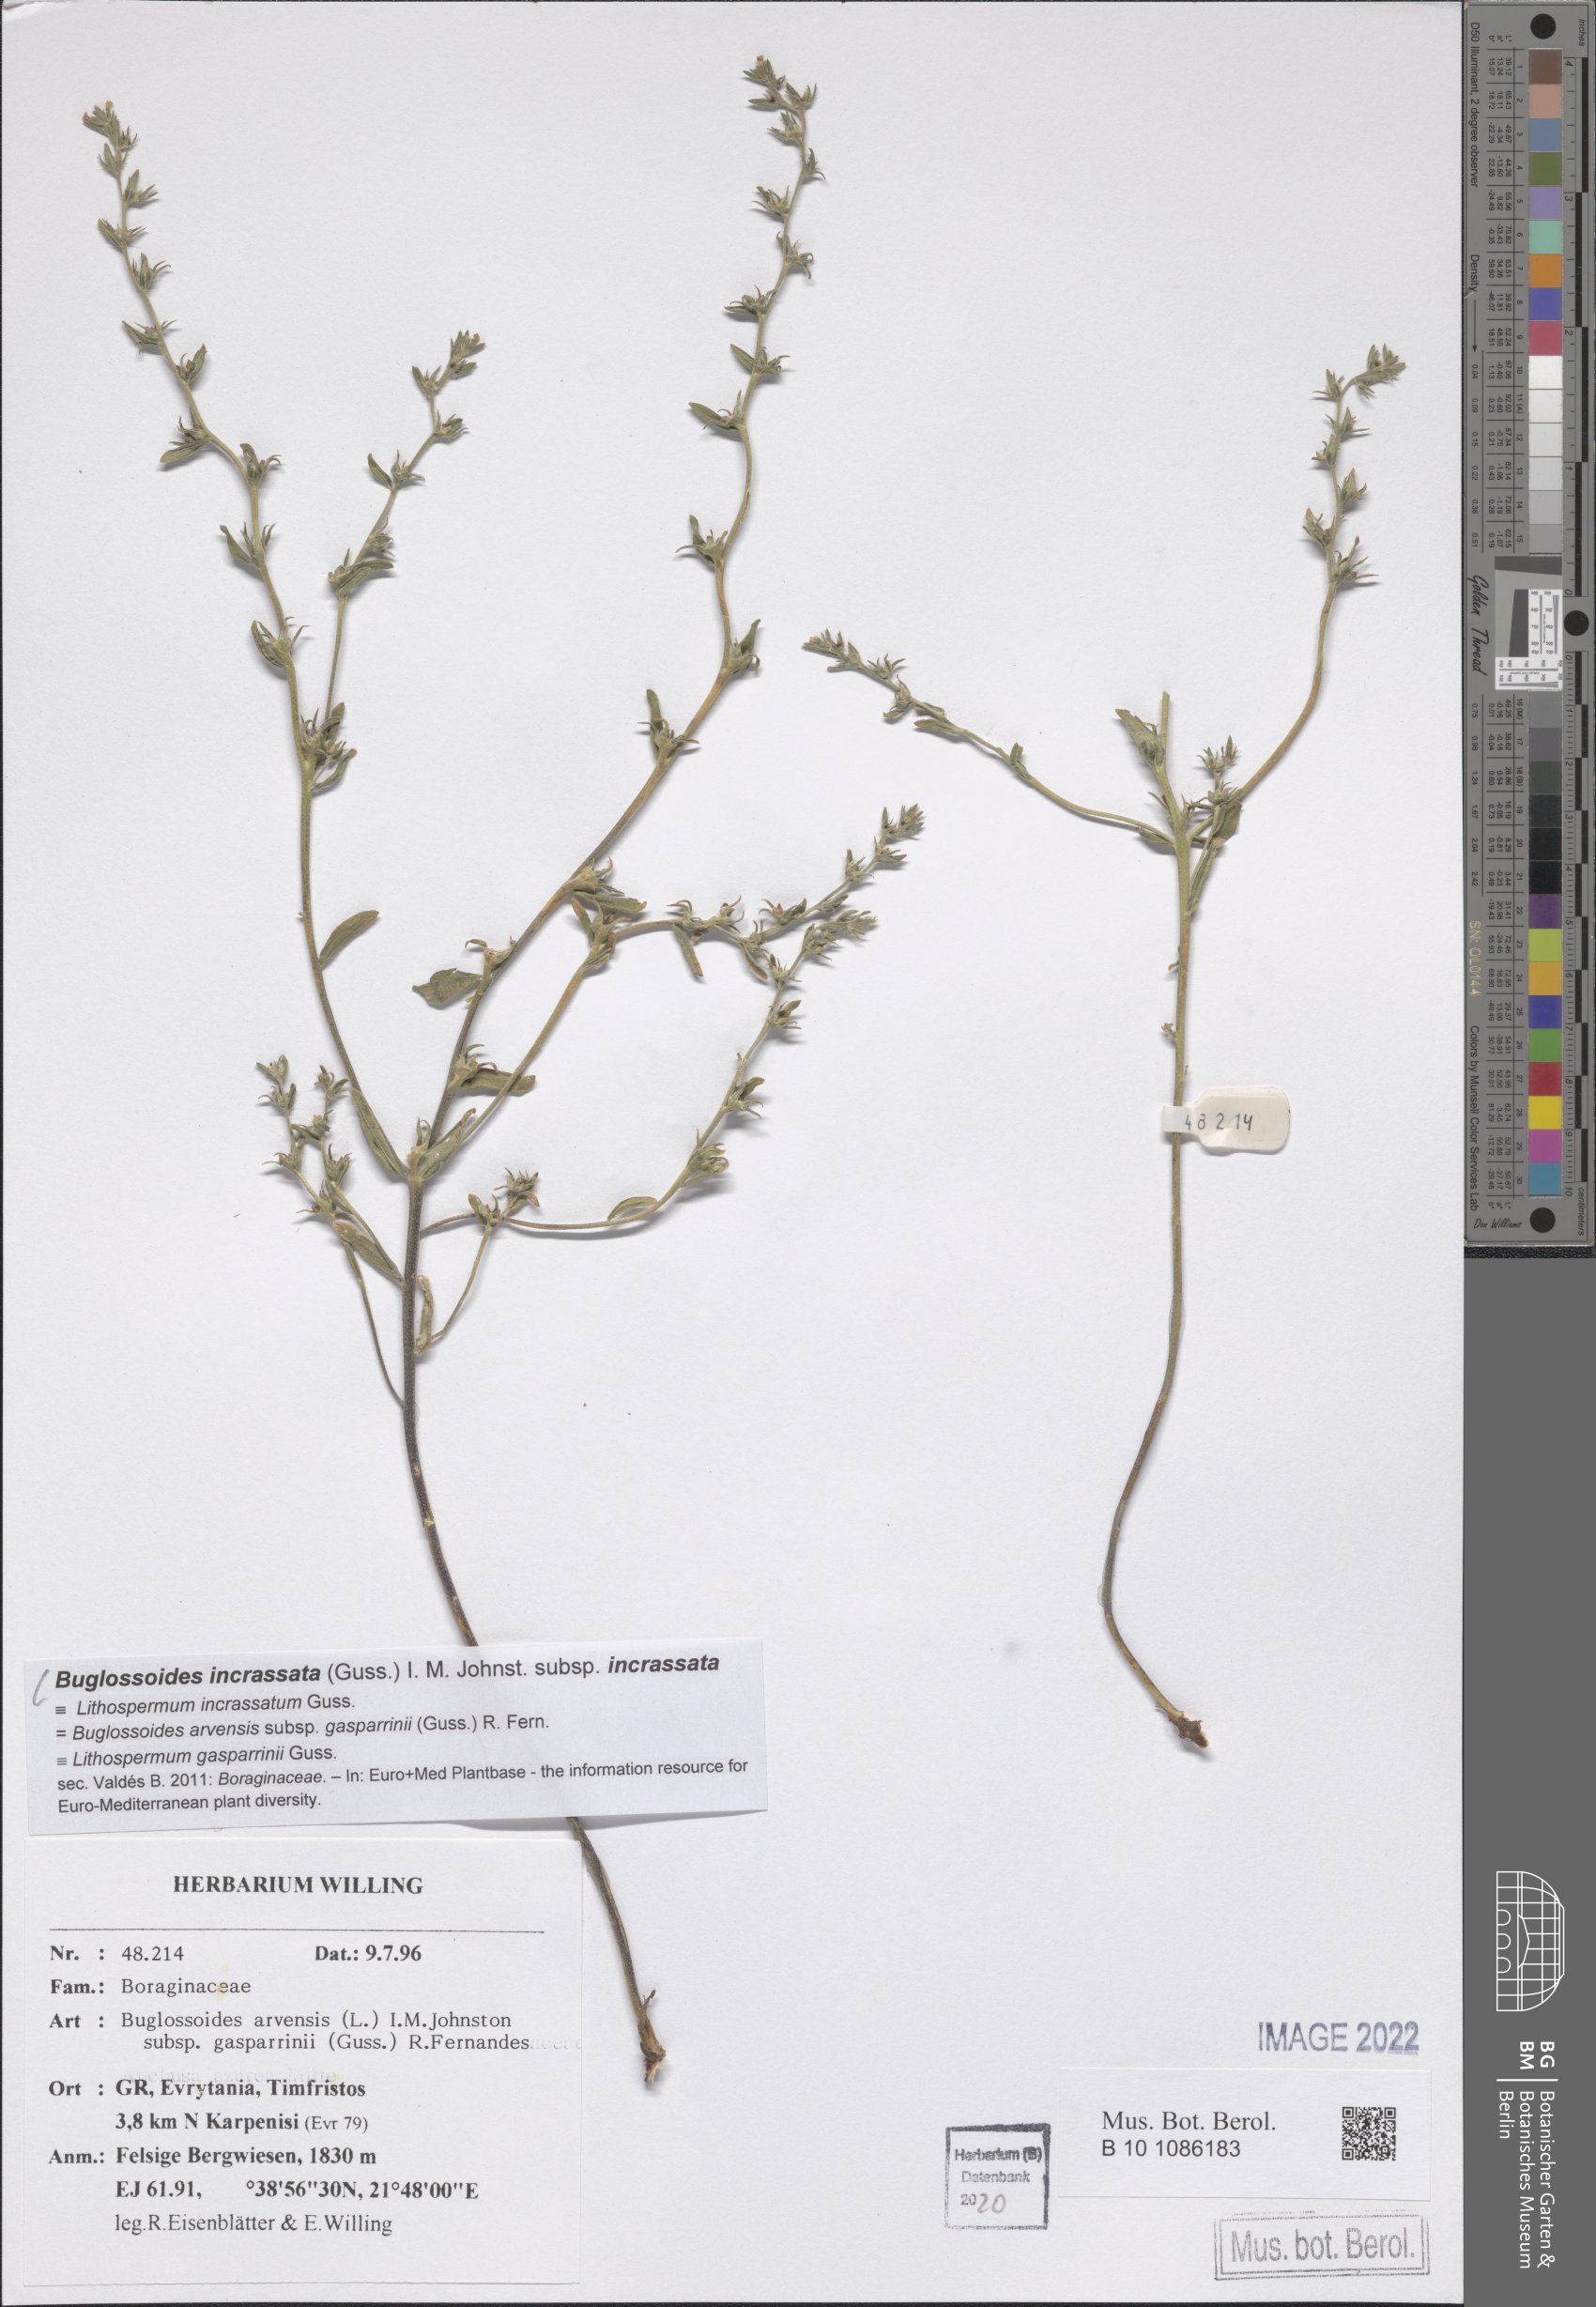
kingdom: Plantae
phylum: Tracheophyta
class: Magnoliopsida
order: Boraginales
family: Boraginaceae
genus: Buglossoides
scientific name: Buglossoides incrassata
